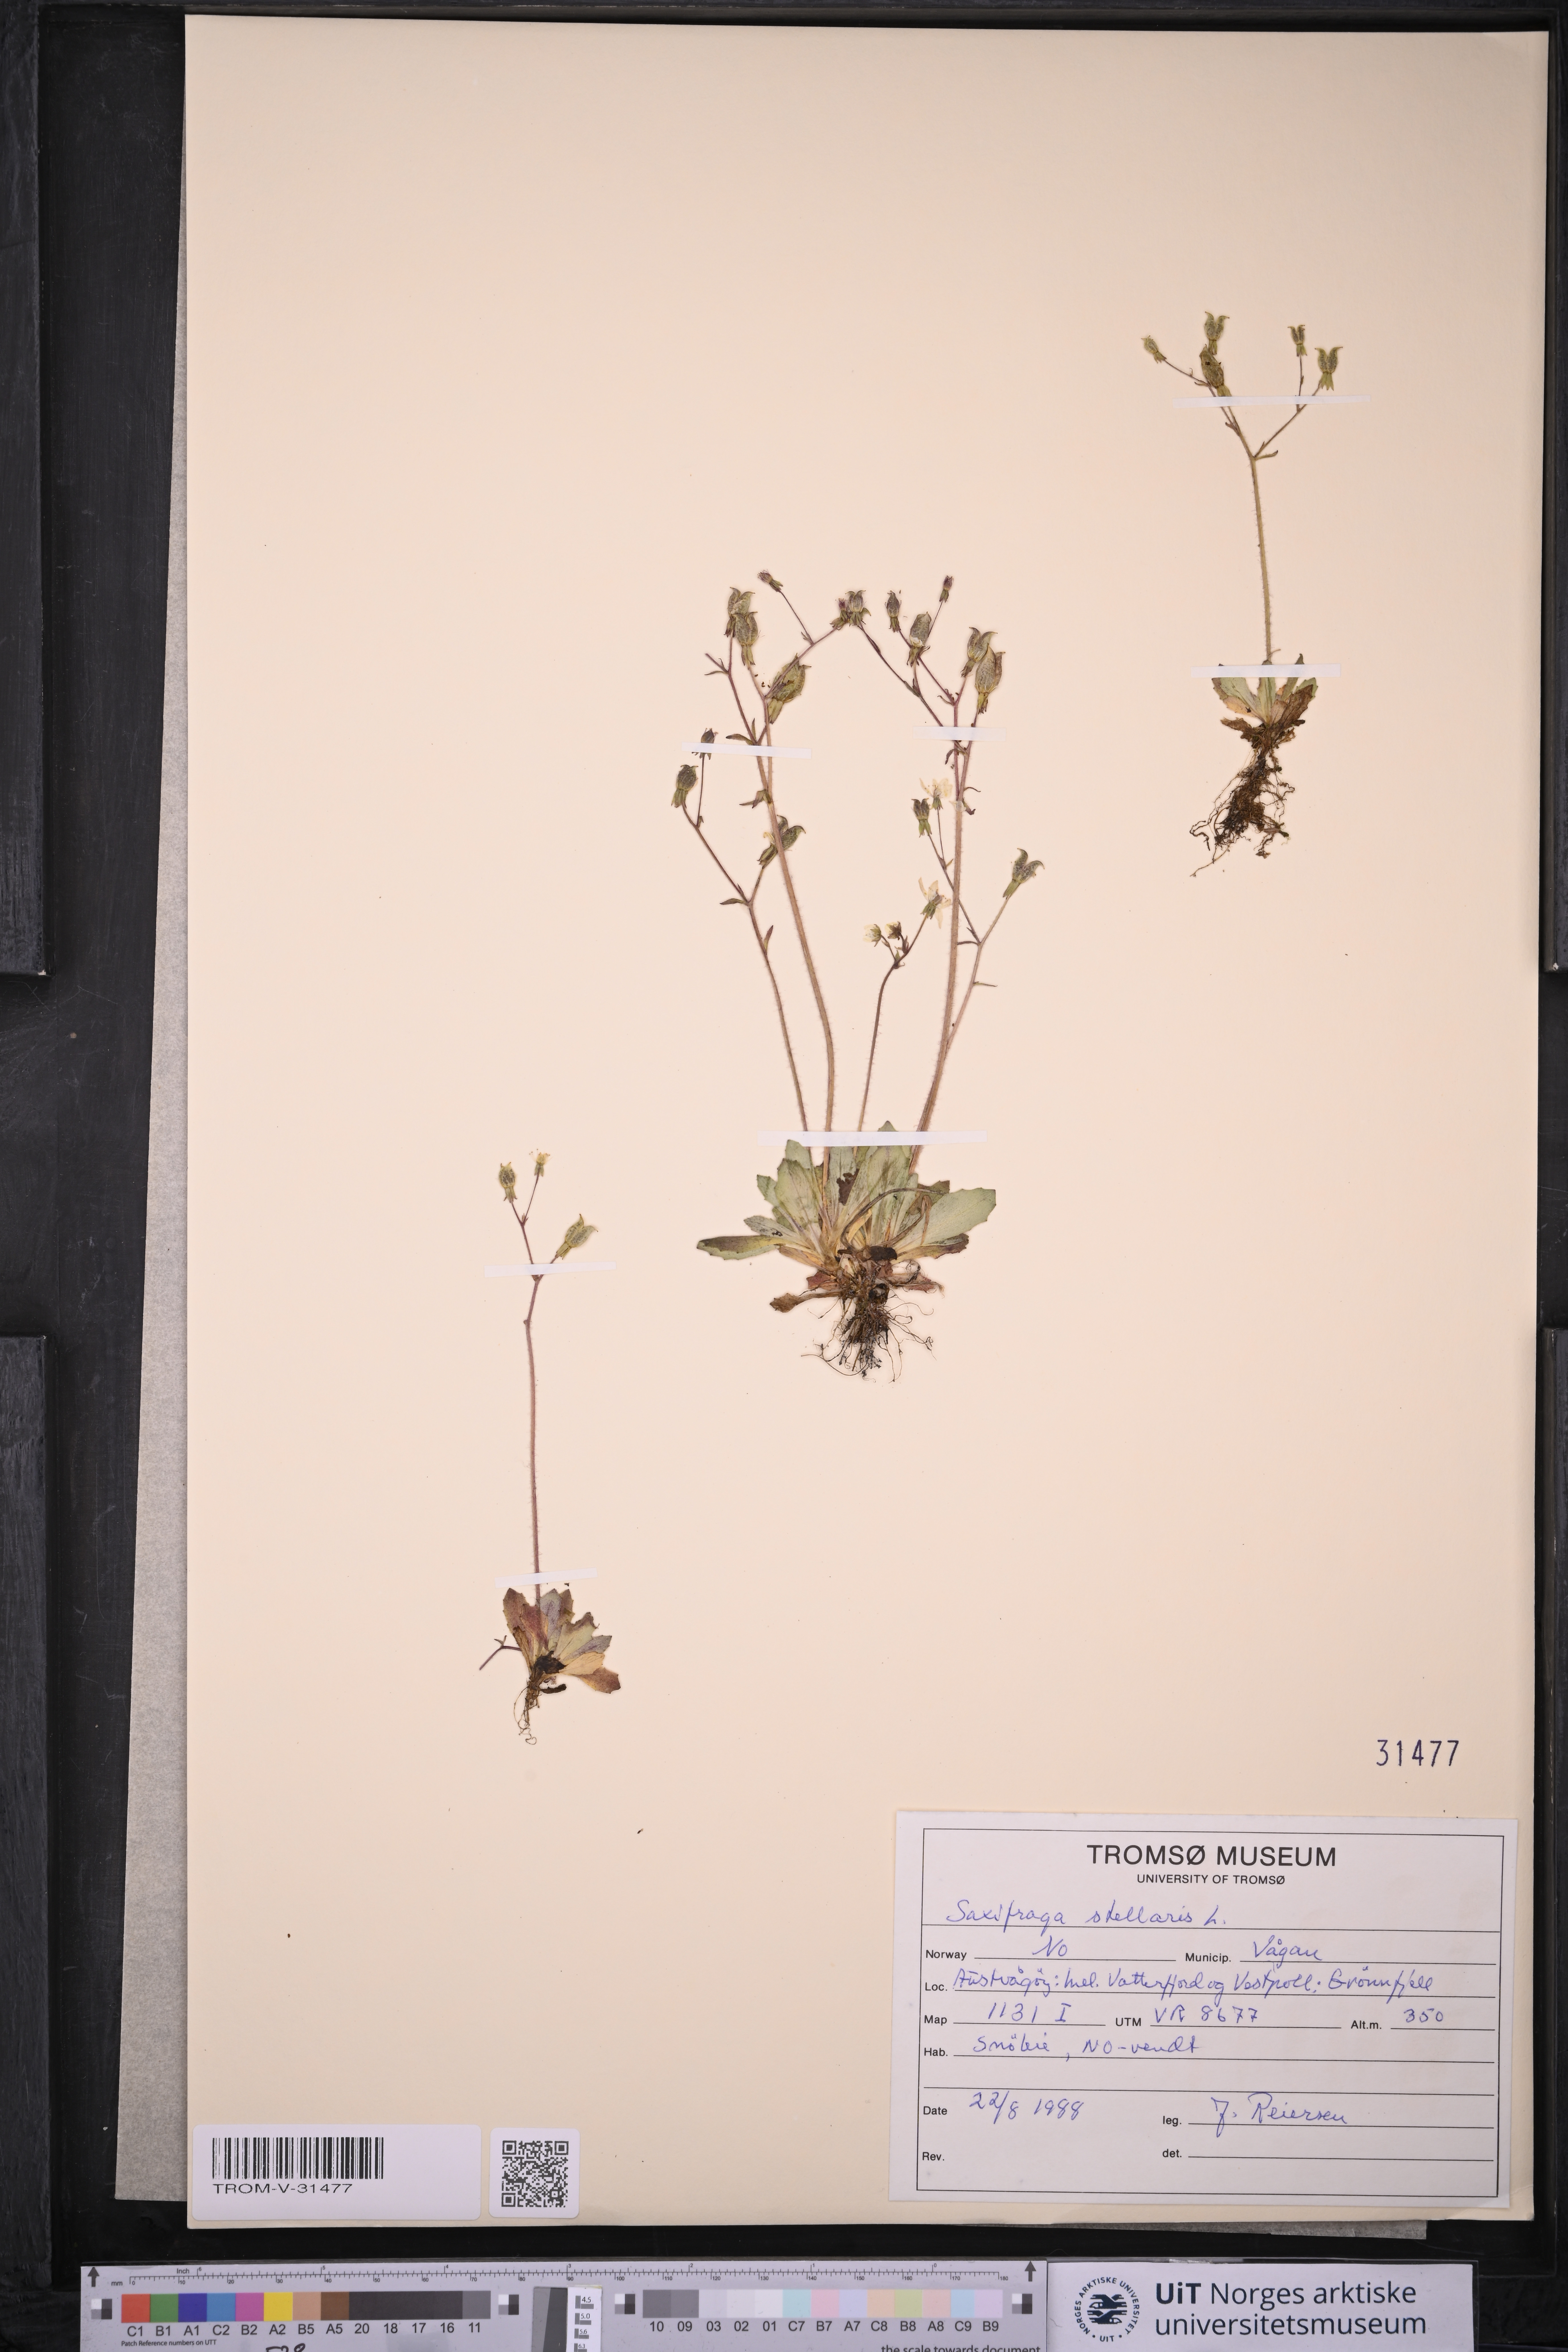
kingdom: Plantae
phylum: Tracheophyta
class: Magnoliopsida
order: Saxifragales
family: Saxifragaceae
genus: Micranthes
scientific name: Micranthes stellaris
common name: Starry saxifrage
